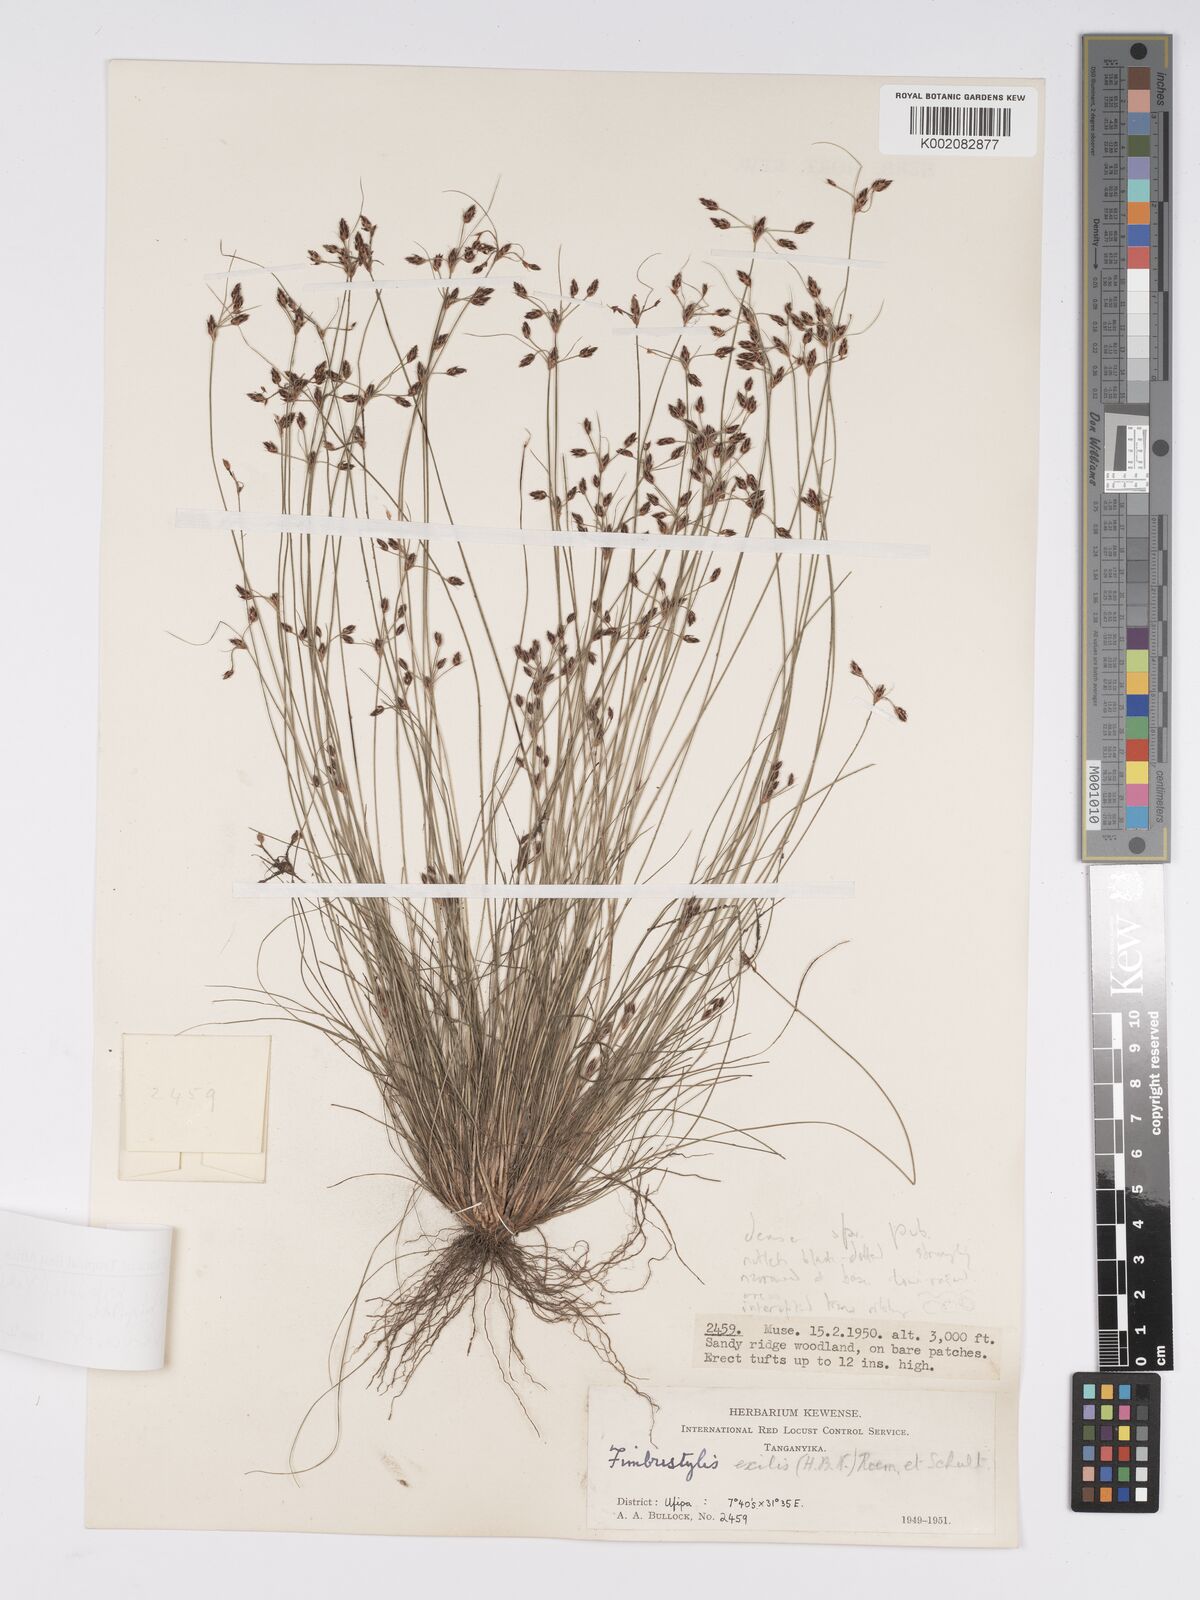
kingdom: Plantae
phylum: Tracheophyta
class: Liliopsida
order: Poales
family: Cyperaceae
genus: Bulbostylis
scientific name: Bulbostylis hispidula
